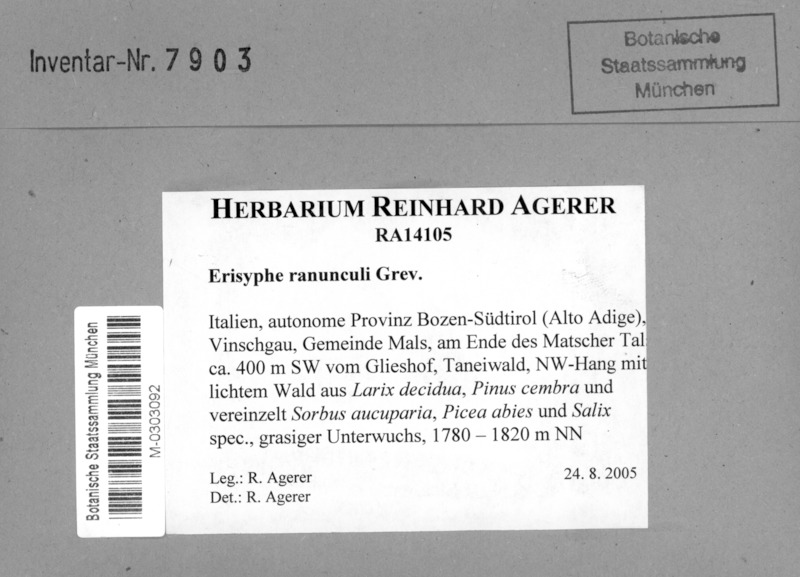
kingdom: Fungi
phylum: Ascomycota
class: Leotiomycetes
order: Helotiales
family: Erysiphaceae
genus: Erysiphe
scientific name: Erysiphe aquilegiae
